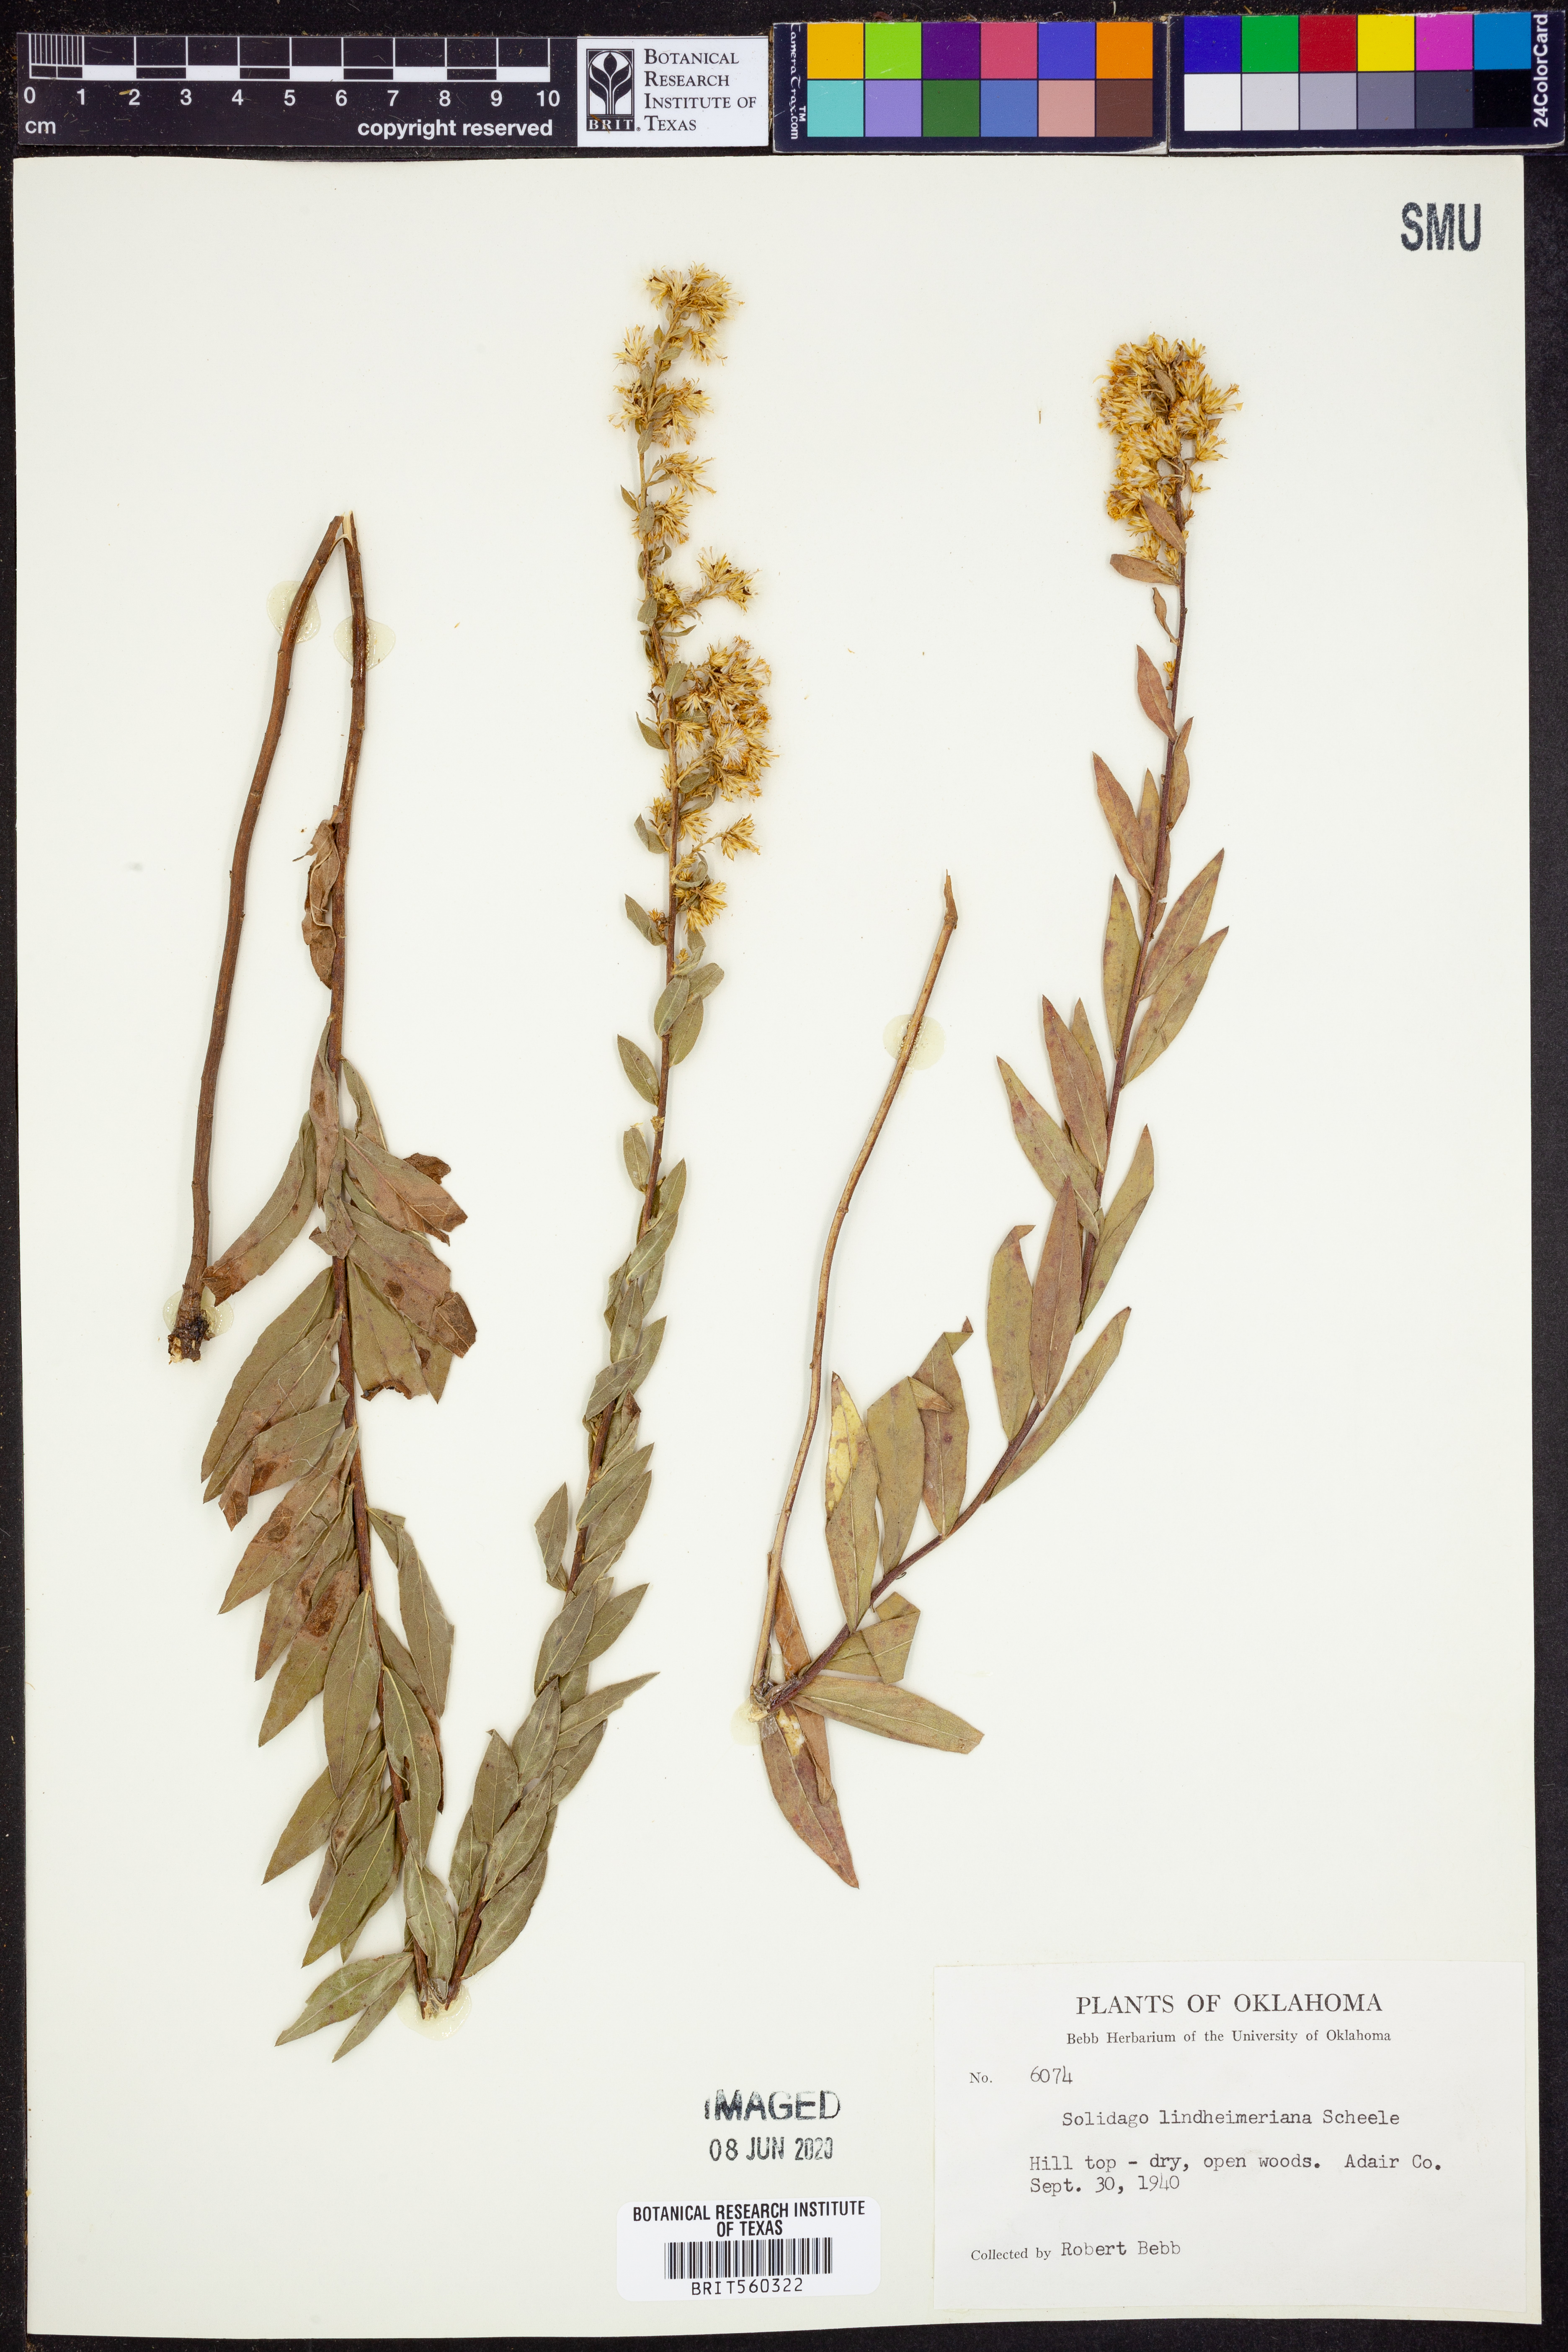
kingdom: Plantae
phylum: Tracheophyta
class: Magnoliopsida
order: Asterales
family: Asteraceae
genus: Solidago
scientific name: Solidago petiolaris
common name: Downy ragged goldenrod
